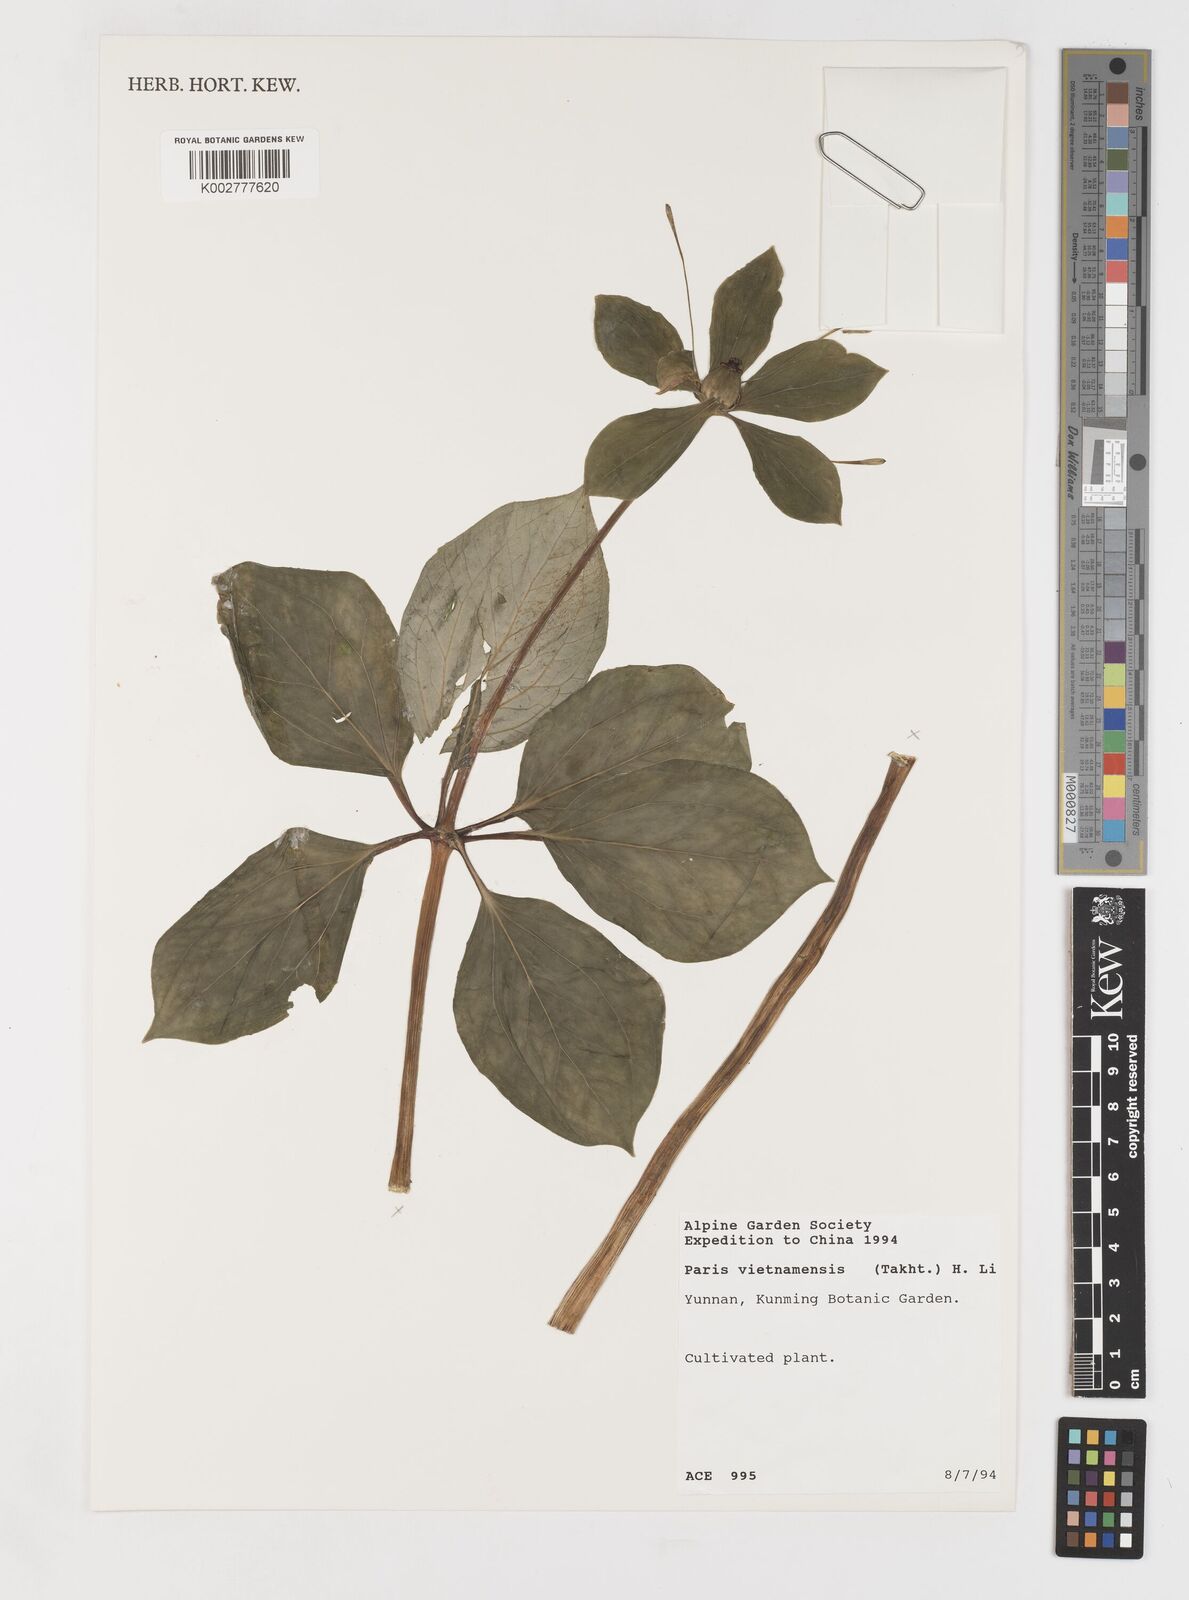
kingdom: Plantae
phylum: Tracheophyta
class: Liliopsida
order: Liliales
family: Melanthiaceae
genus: Paris
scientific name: Paris vietnamensis
